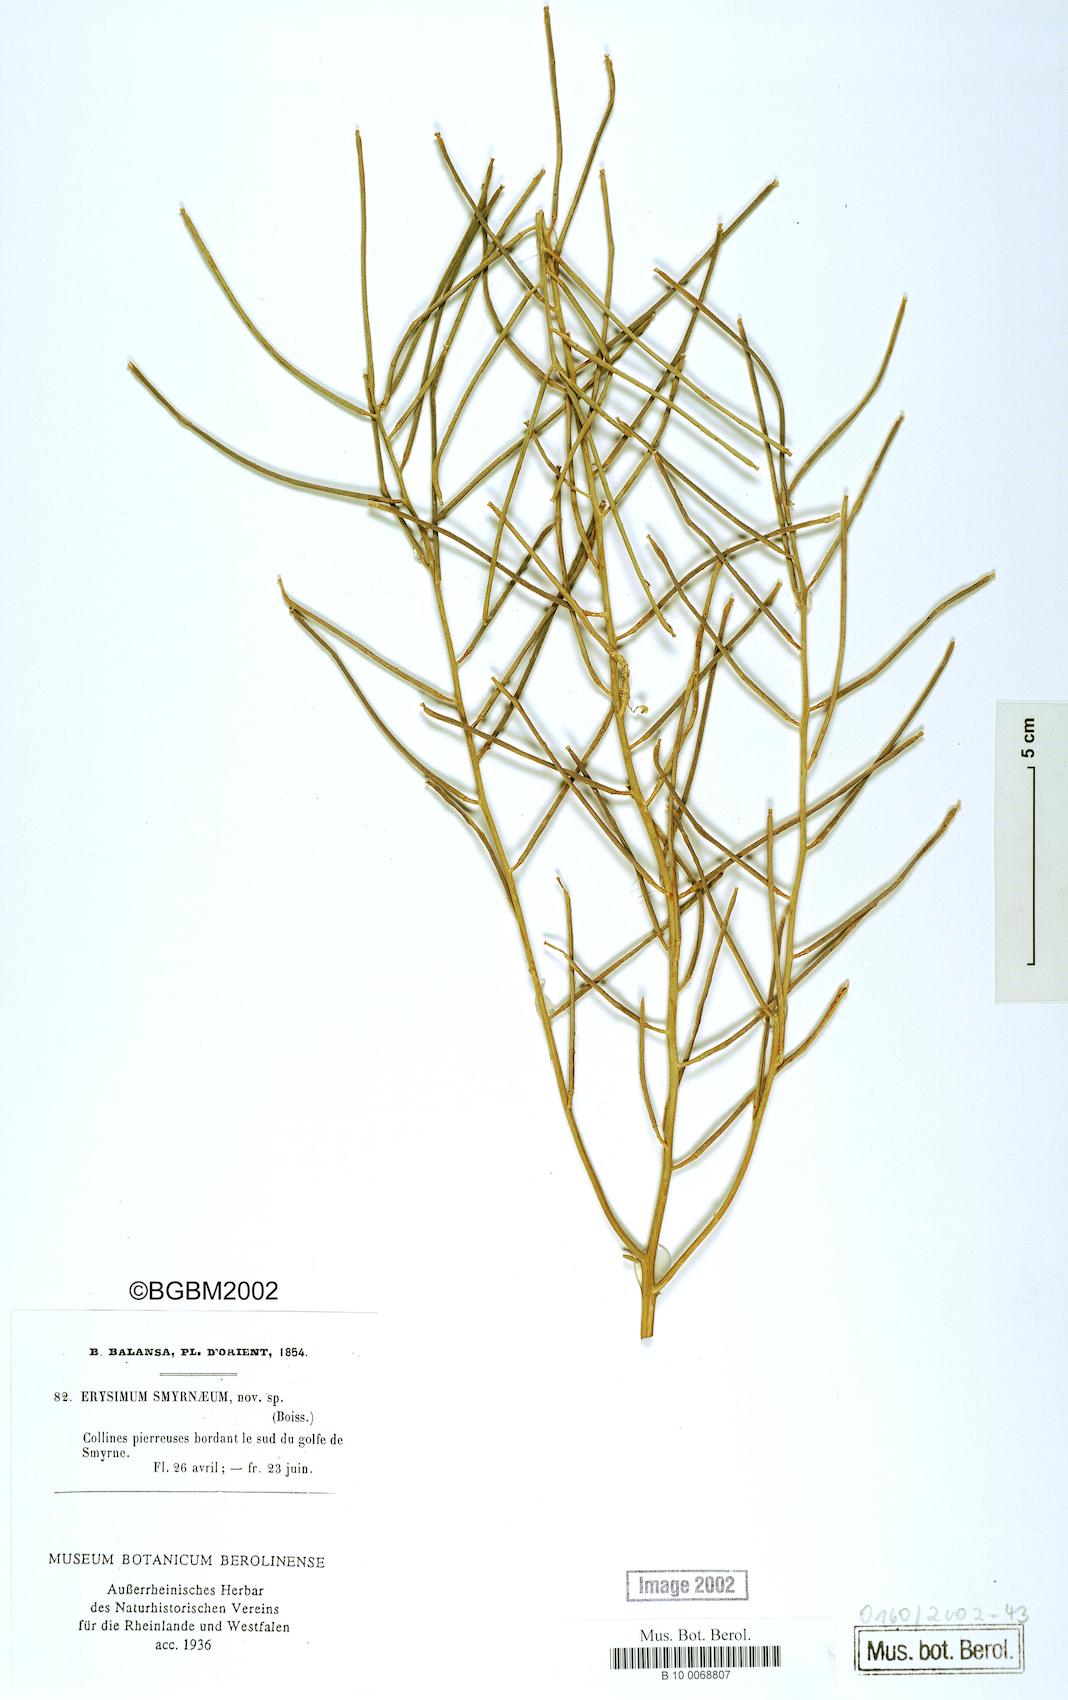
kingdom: Plantae
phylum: Tracheophyta
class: Magnoliopsida
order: Brassicales
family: Brassicaceae
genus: Erysimum
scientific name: Erysimum smyrnaeum
